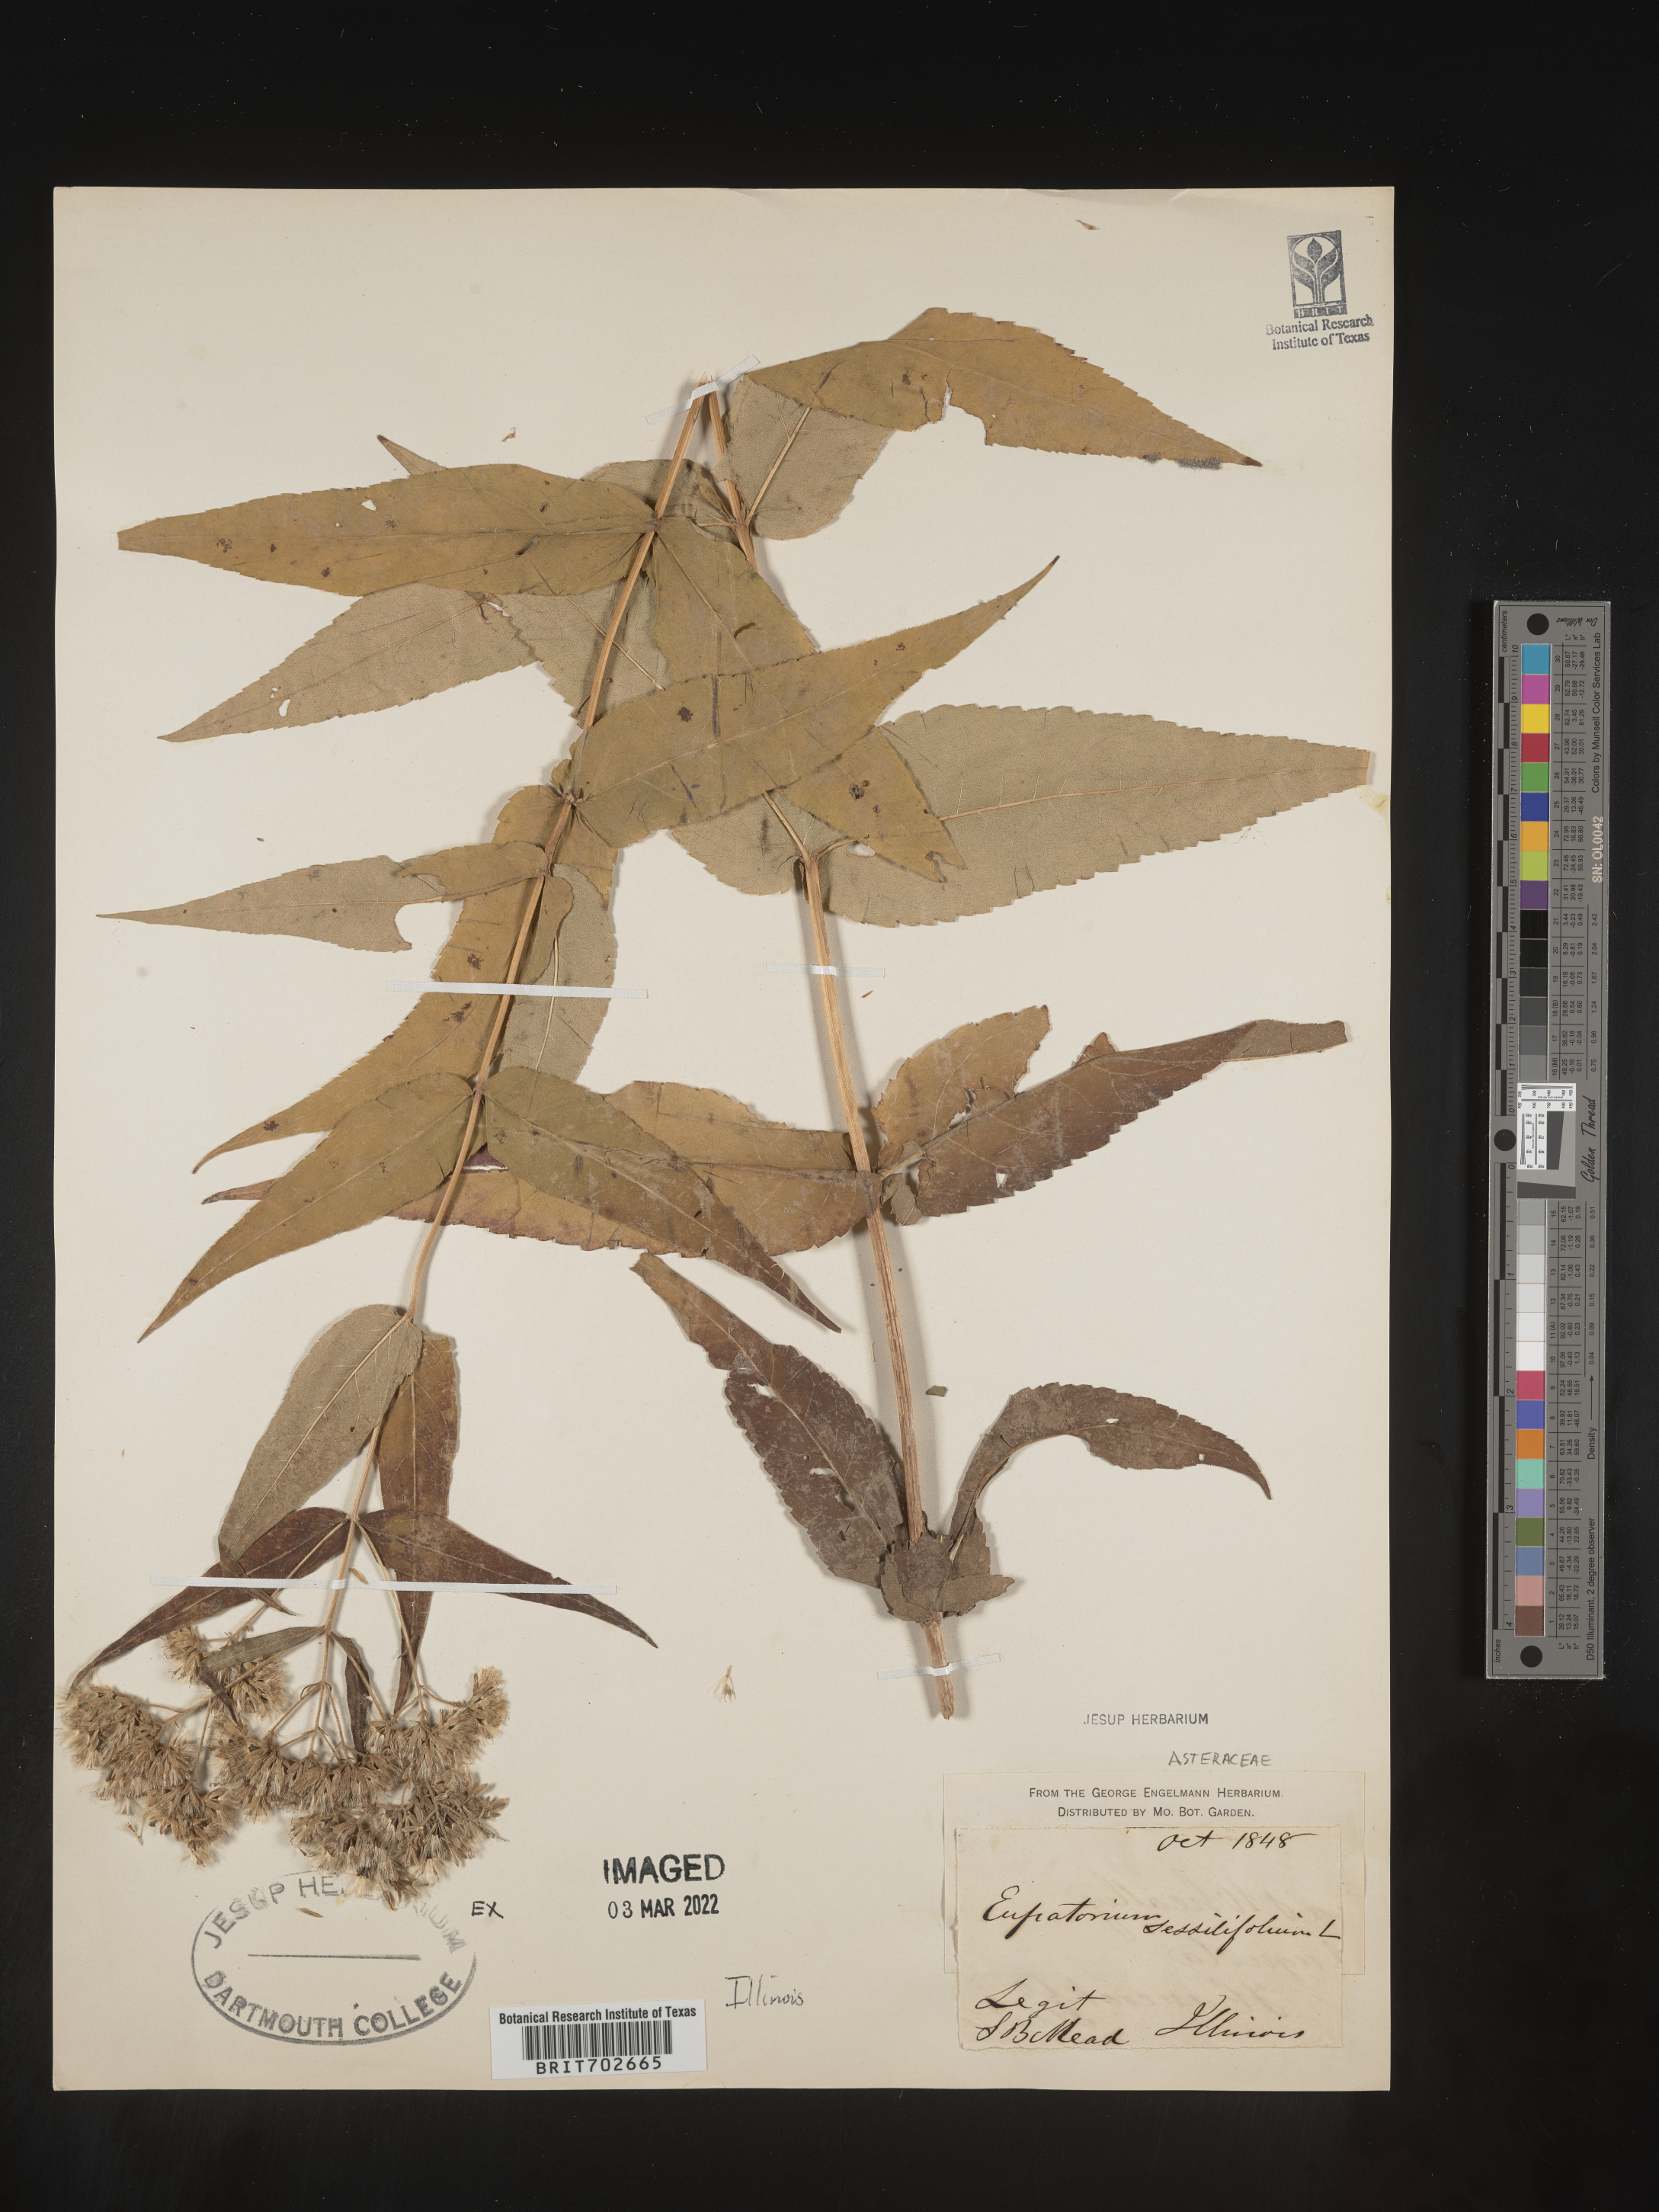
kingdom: Plantae
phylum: Tracheophyta
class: Magnoliopsida
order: Asterales
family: Asteraceae
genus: Eupatorium
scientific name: Eupatorium sessilifolium
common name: Upland boneset
